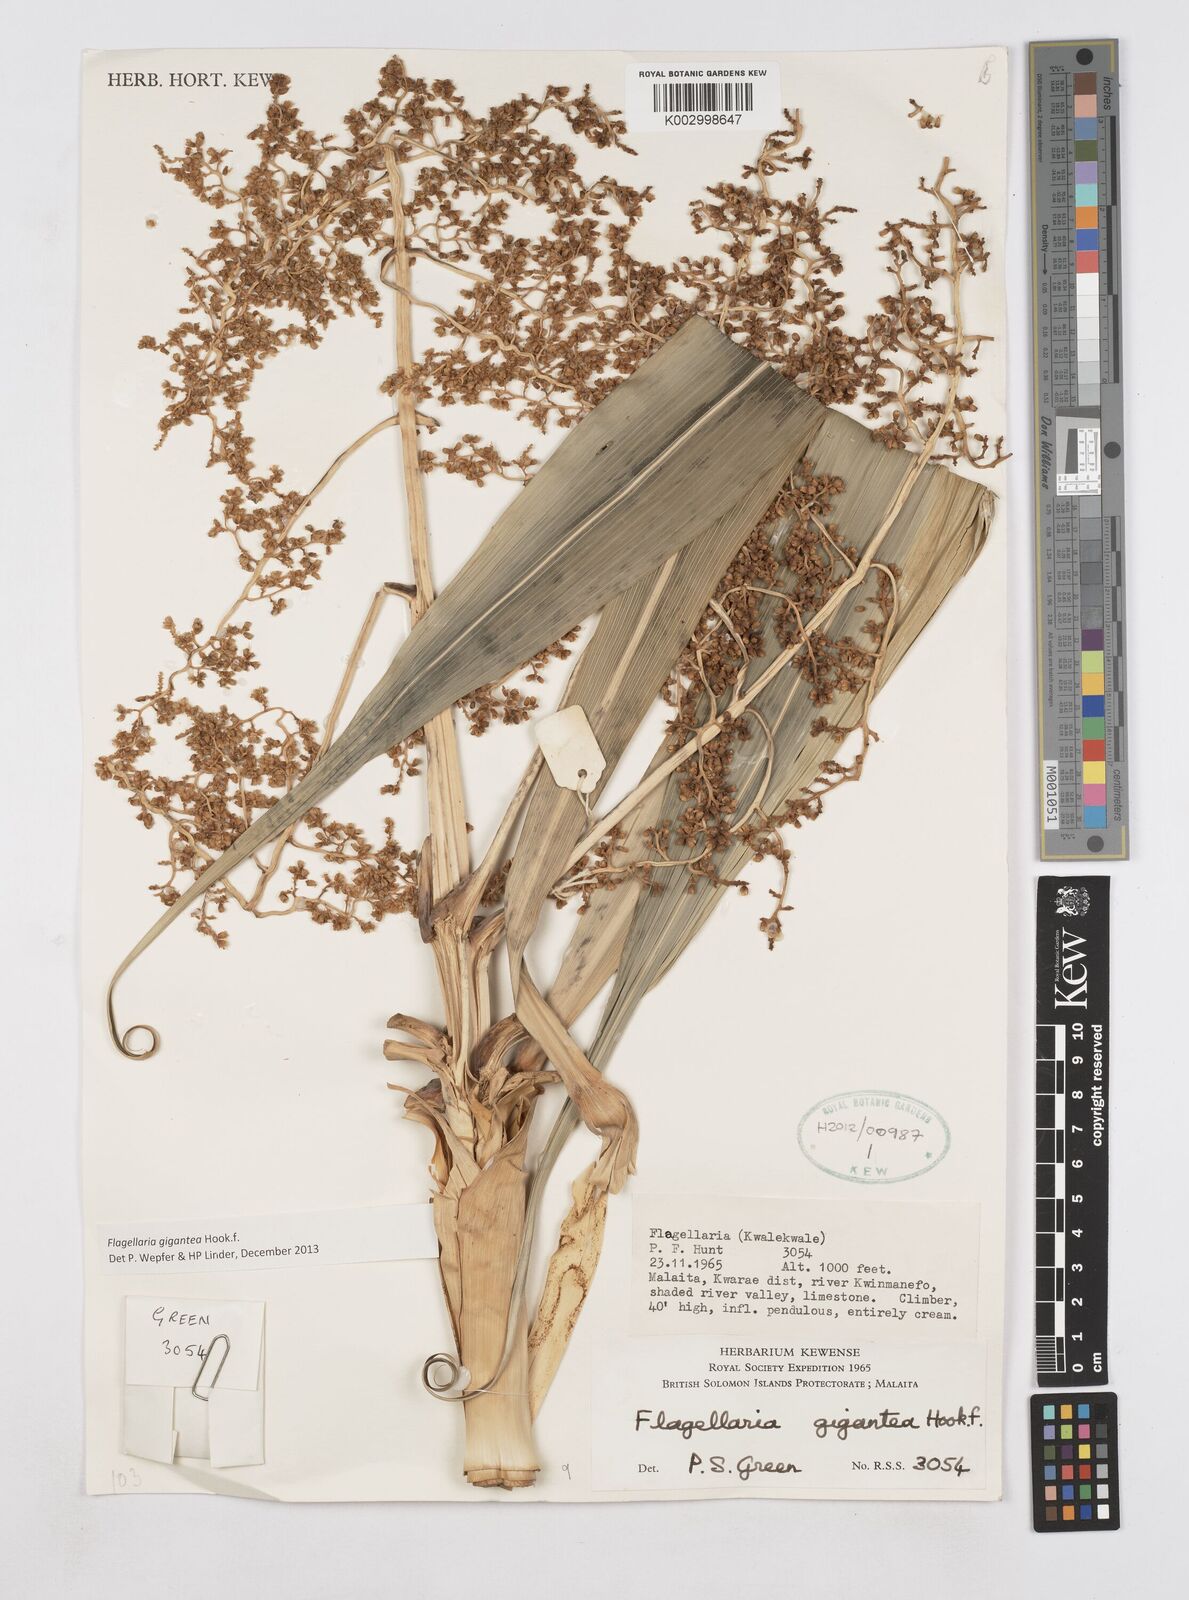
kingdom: Plantae
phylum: Tracheophyta
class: Liliopsida
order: Poales
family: Flagellariaceae
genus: Flagellaria
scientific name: Flagellaria gigantea
